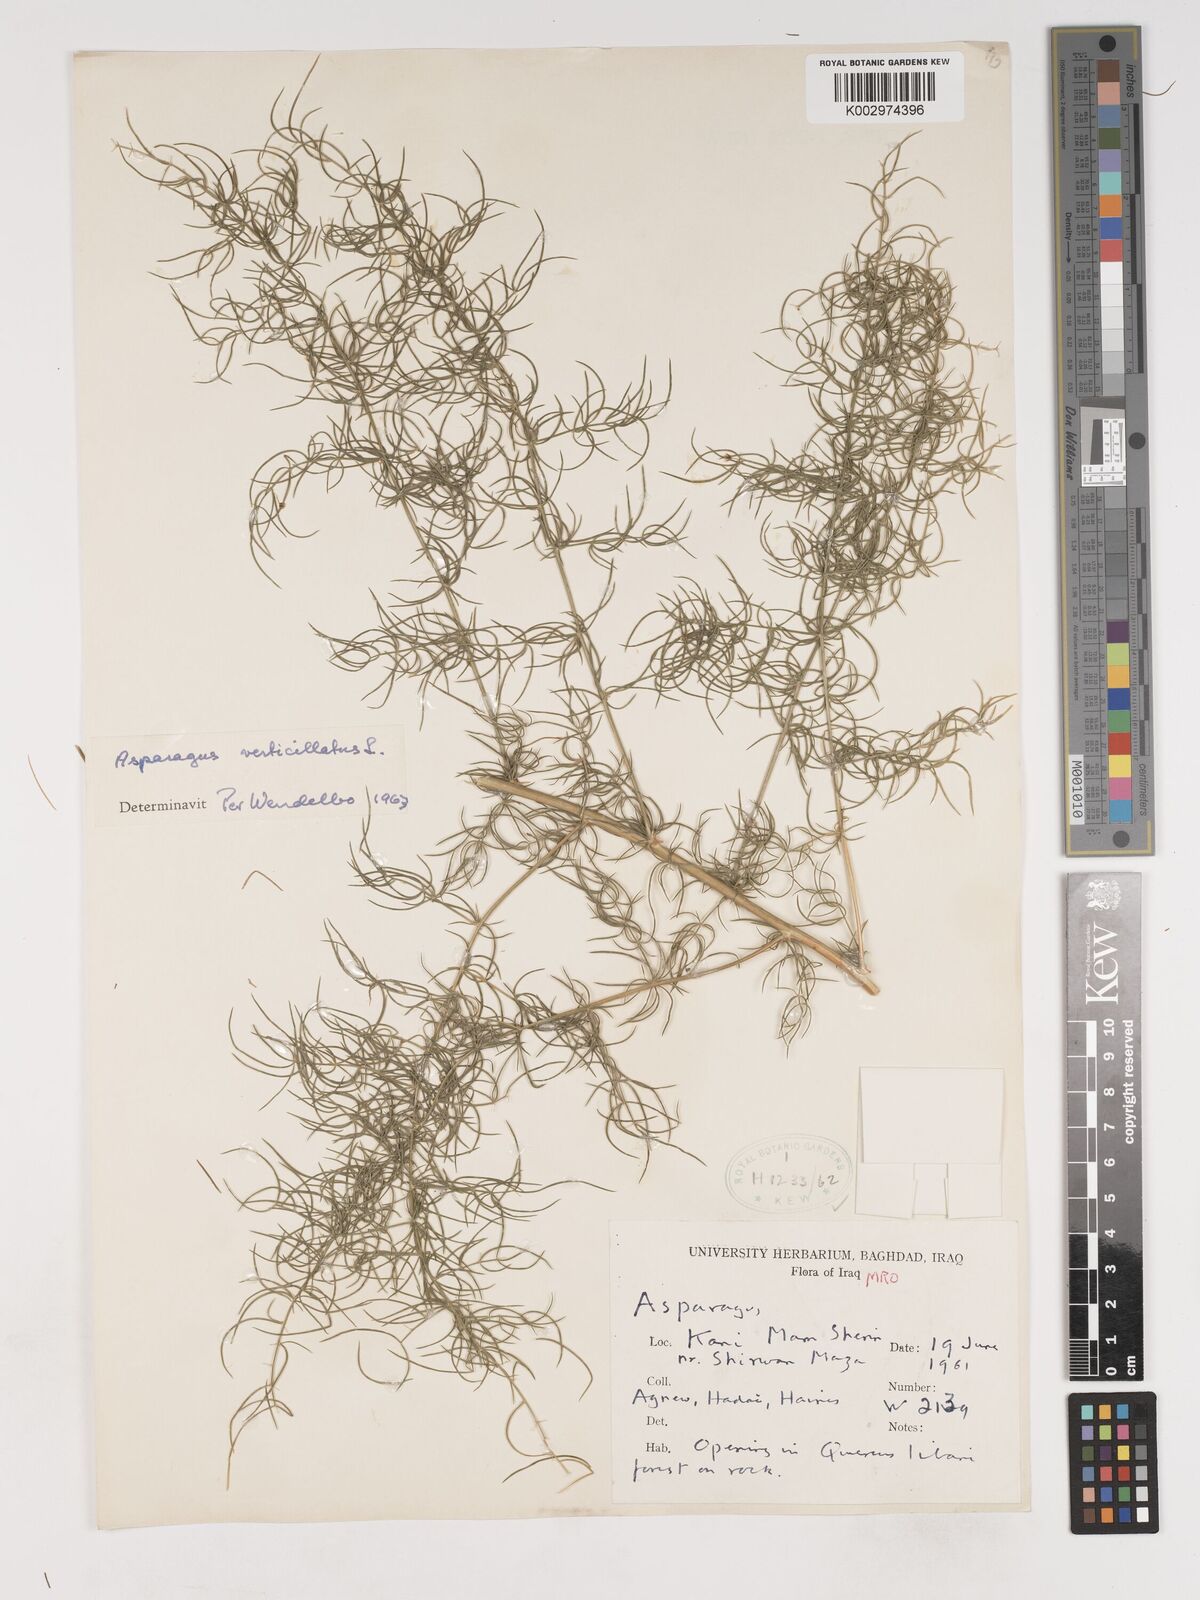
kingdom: Plantae
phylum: Tracheophyta
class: Liliopsida
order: Asparagales
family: Asparagaceae
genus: Asparagus
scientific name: Asparagus verticillatus
